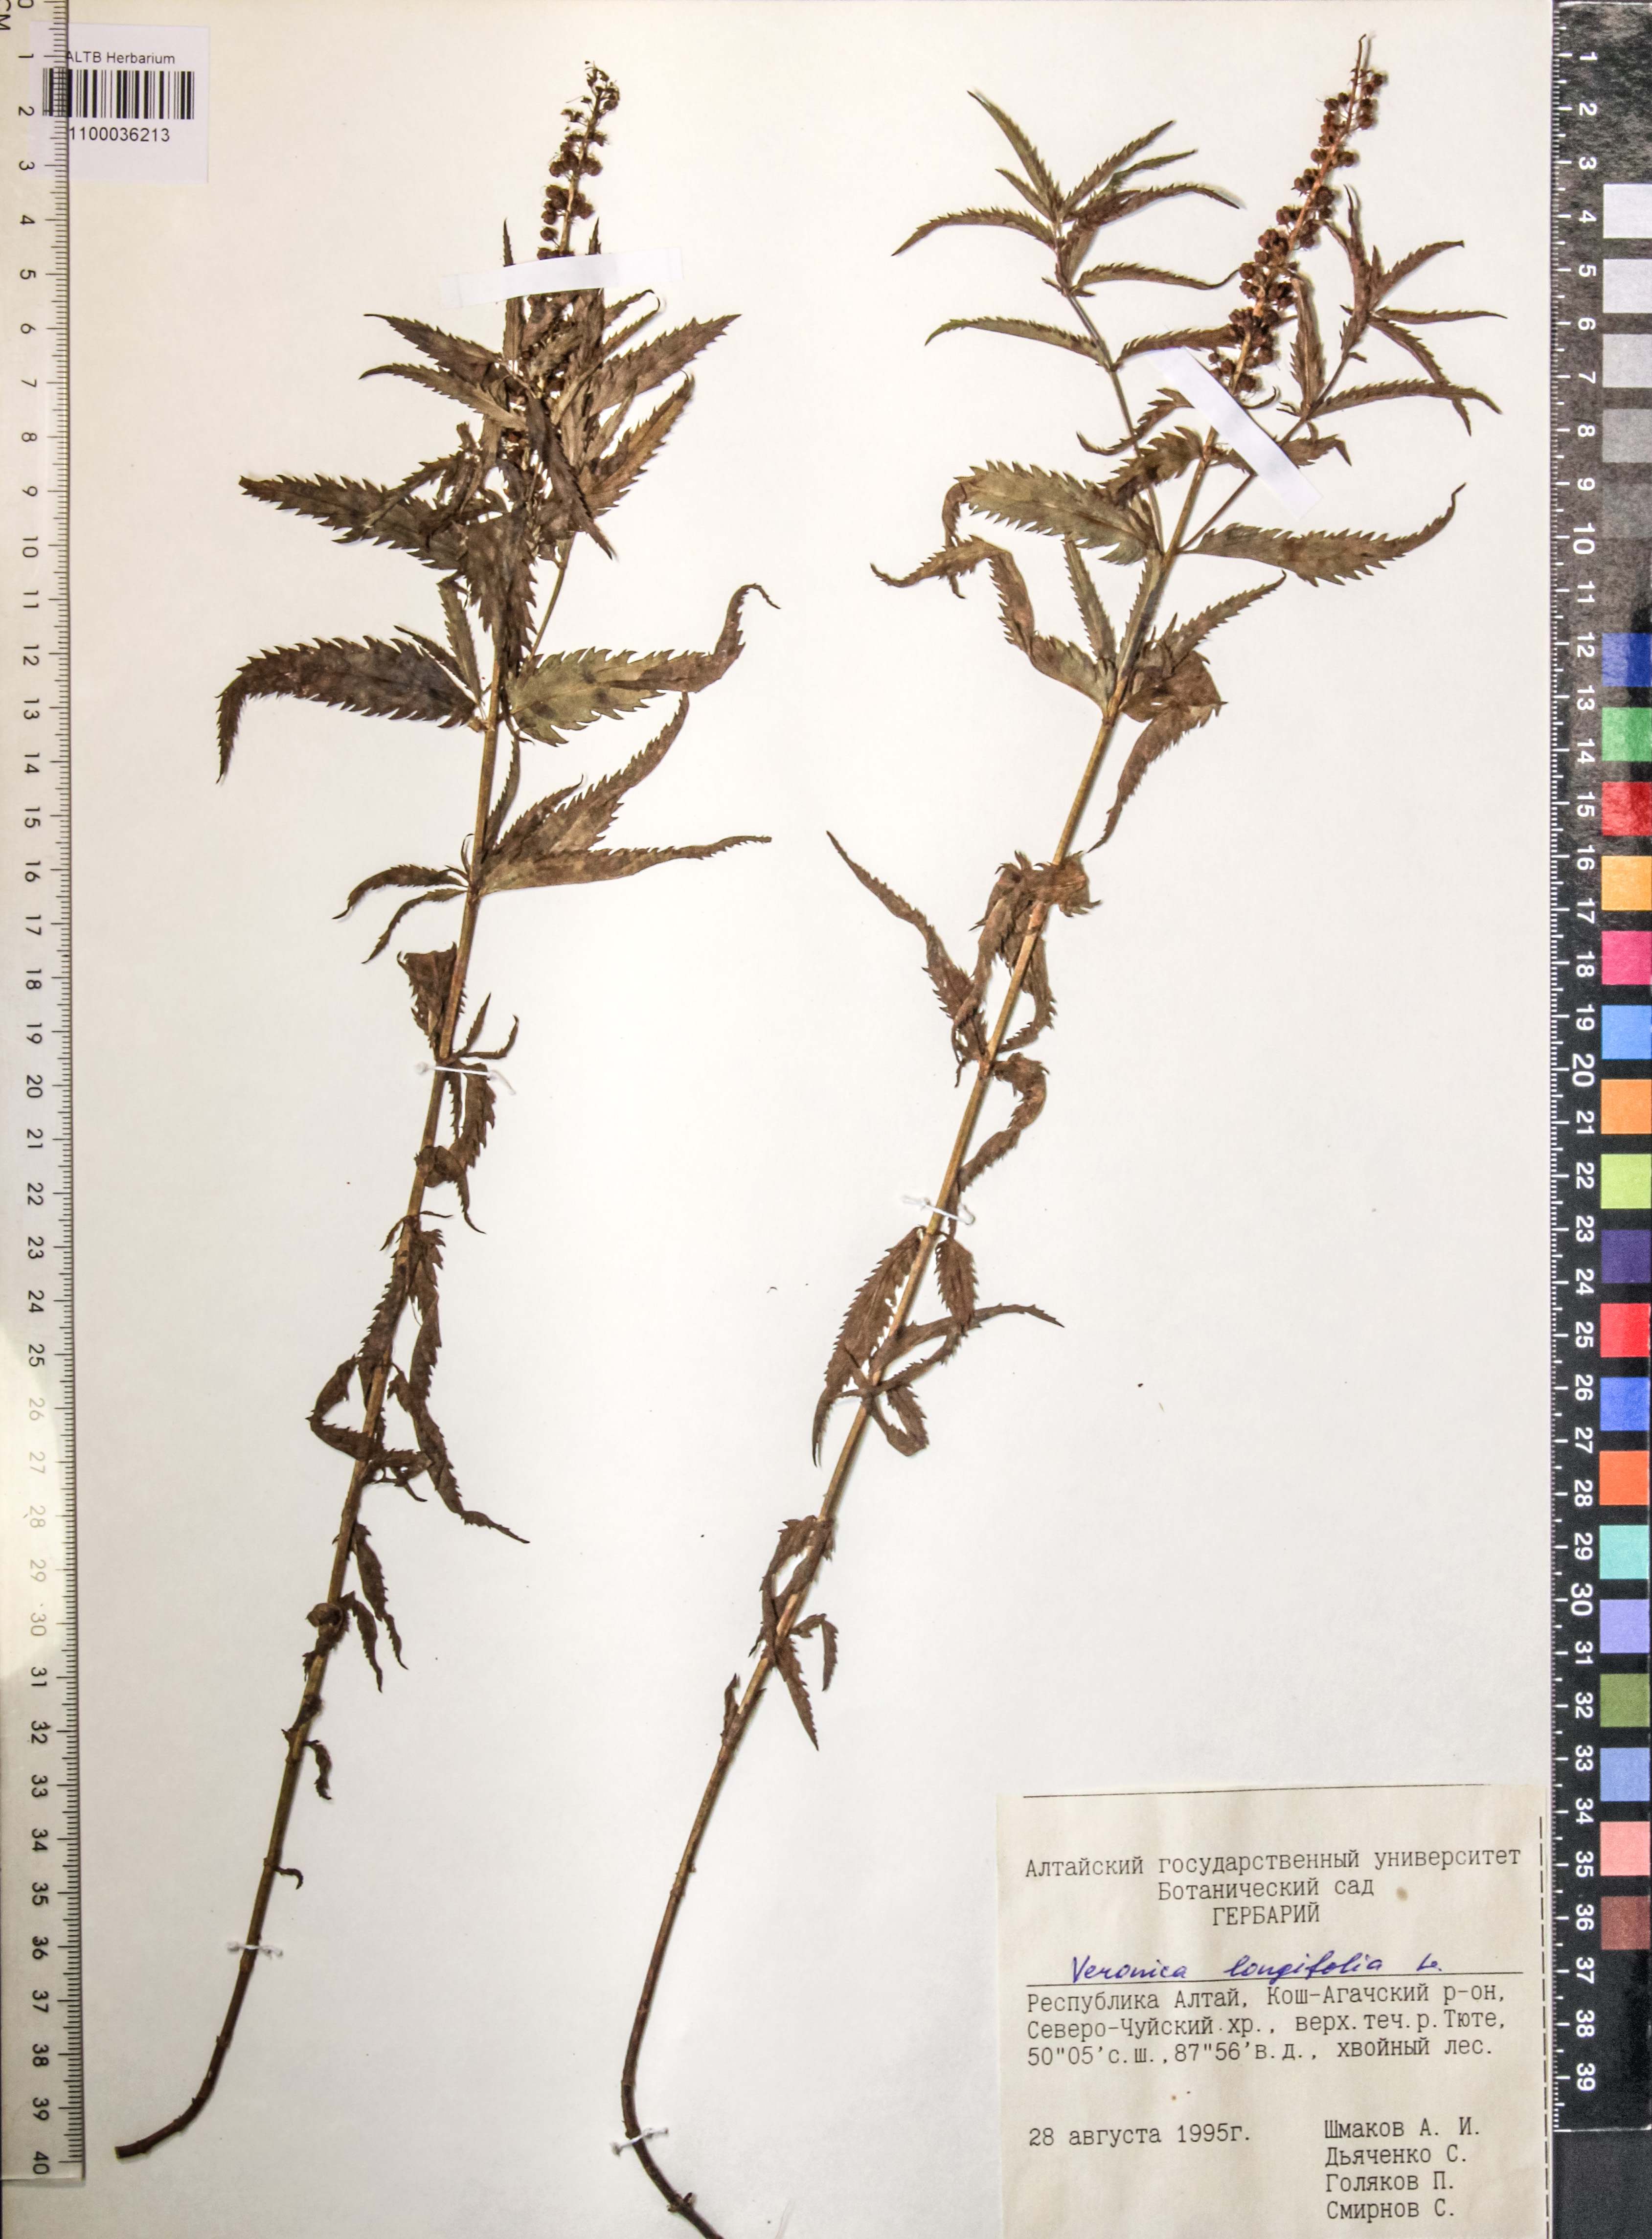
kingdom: Plantae
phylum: Tracheophyta
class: Magnoliopsida
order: Lamiales
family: Plantaginaceae
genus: Veronica
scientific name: Veronica longifolia
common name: Garden speedwell
